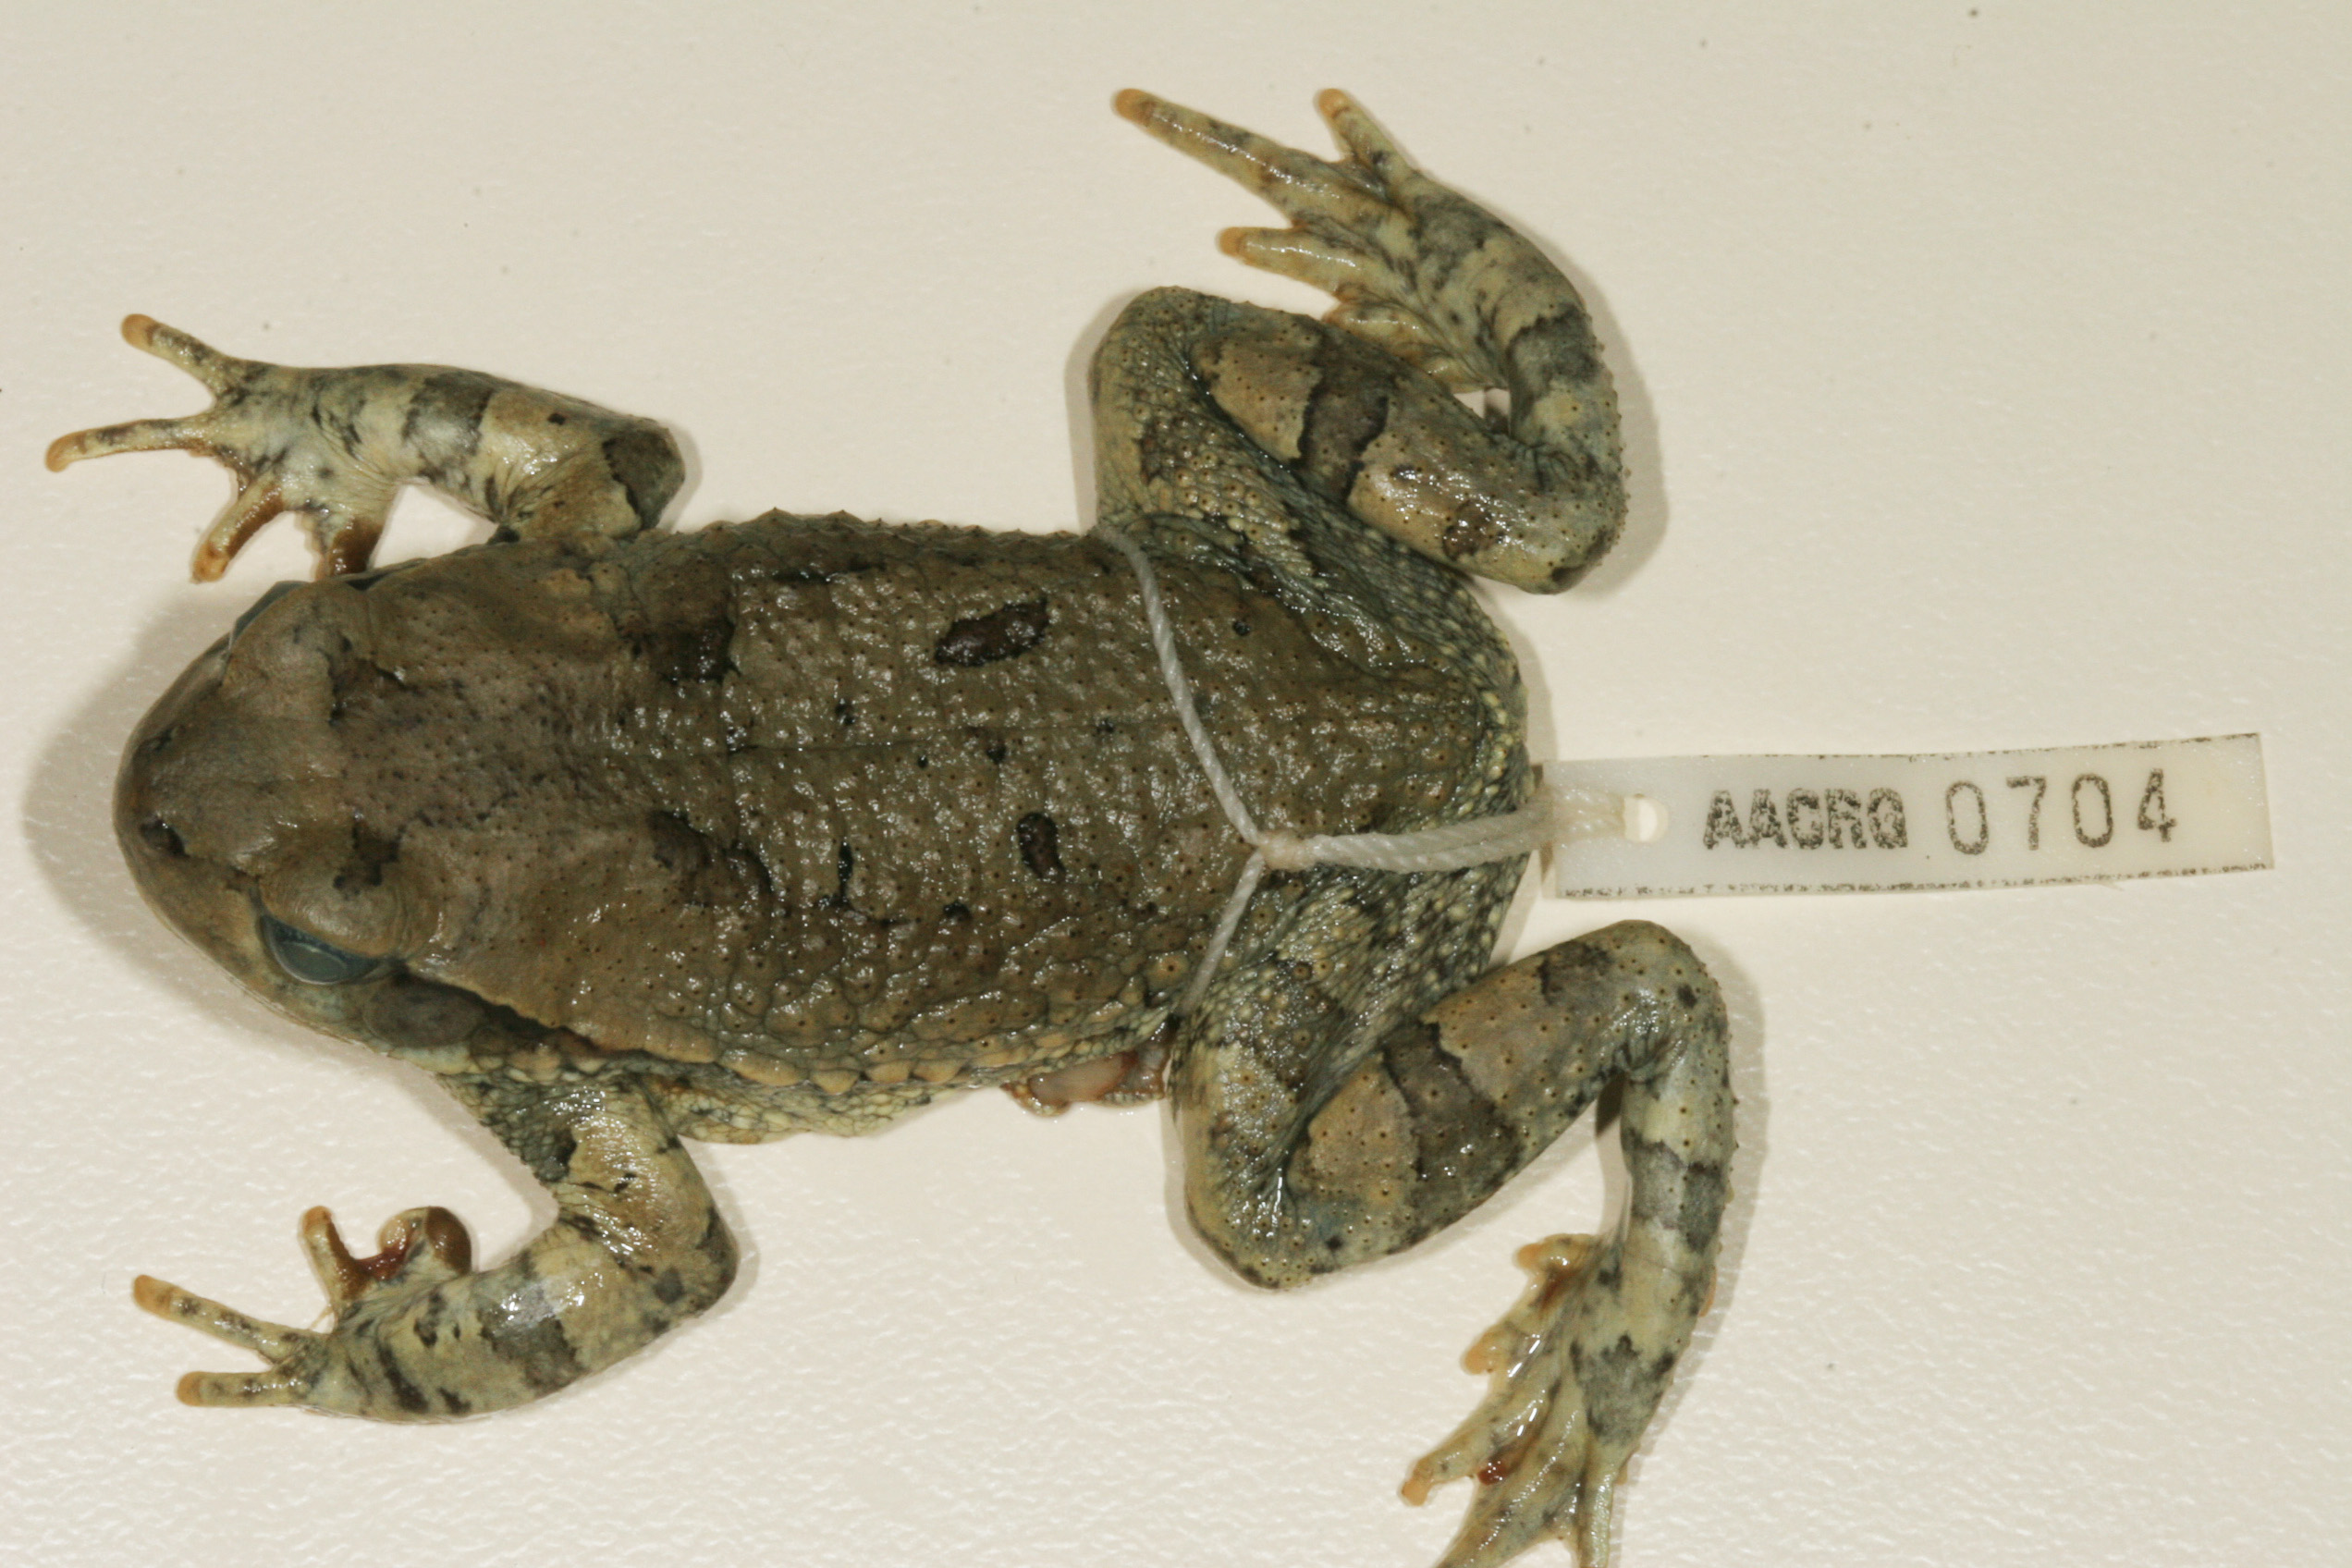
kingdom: Animalia
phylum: Chordata
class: Amphibia
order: Anura
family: Bufonidae
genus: Schismaderma
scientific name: Schismaderma carens
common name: African split-skin toad
